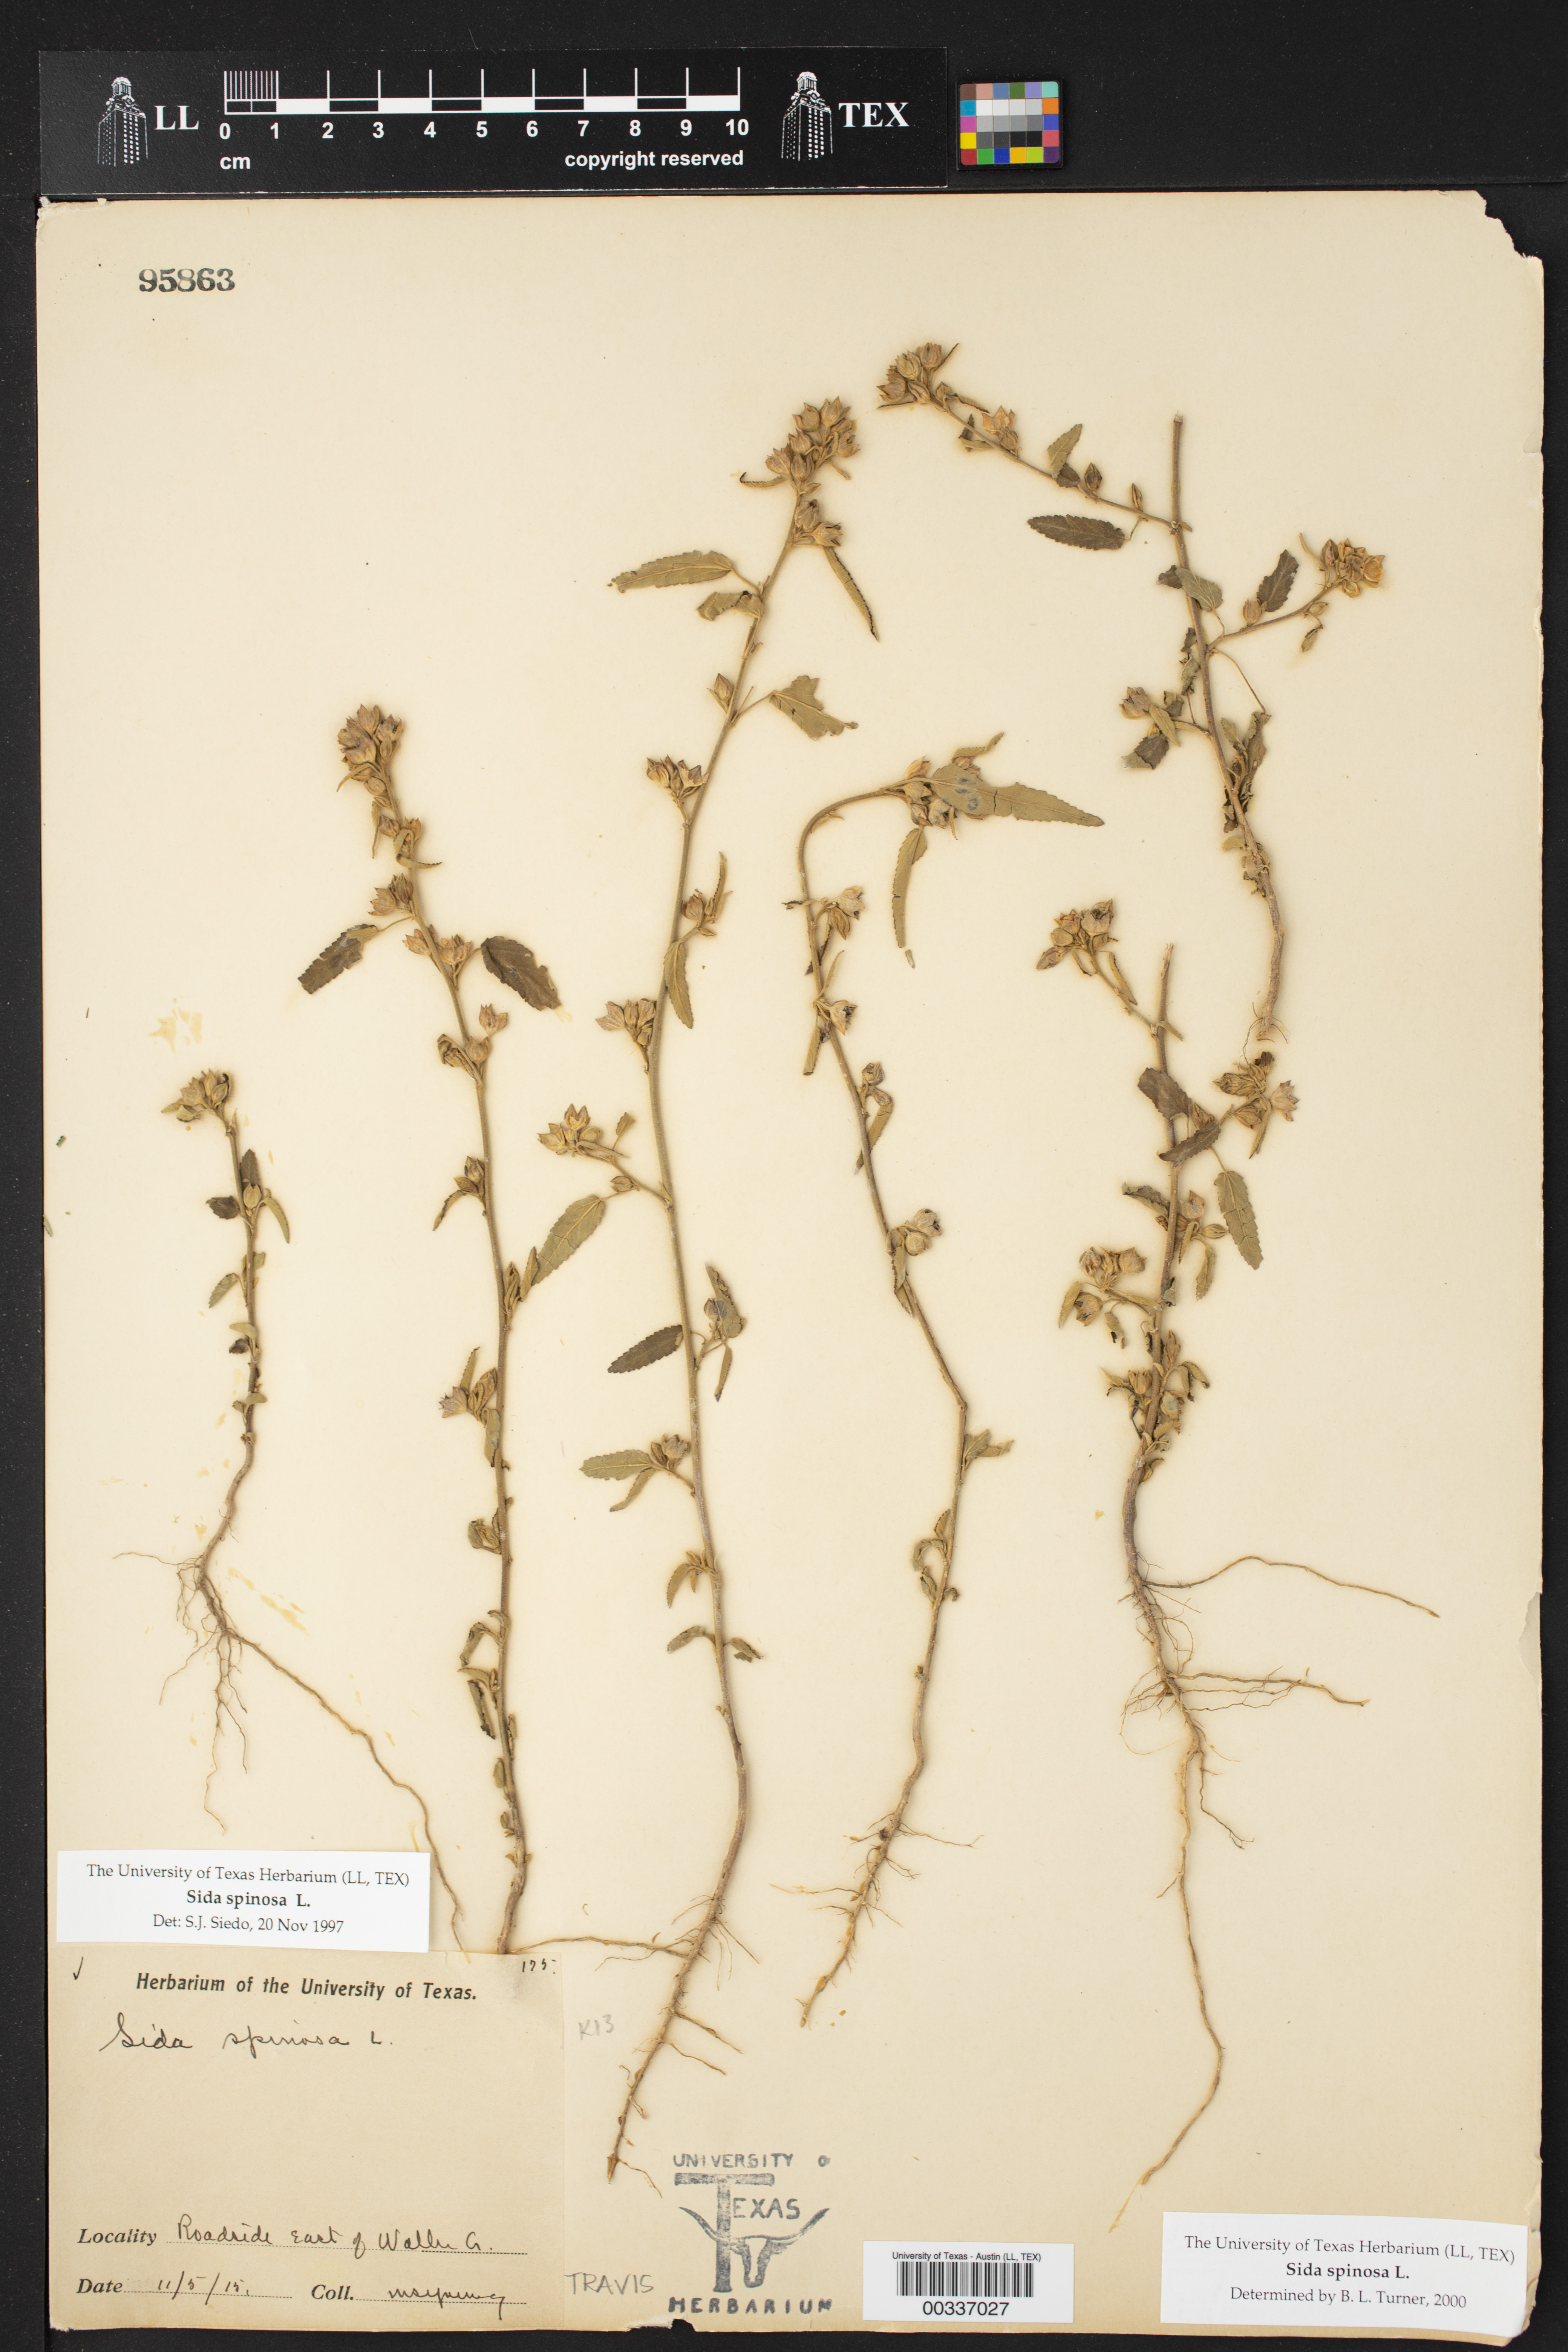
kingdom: Plantae
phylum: Tracheophyta
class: Magnoliopsida
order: Malvales
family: Malvaceae
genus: Sida
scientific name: Sida spinosa
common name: Prickly fanpetals
